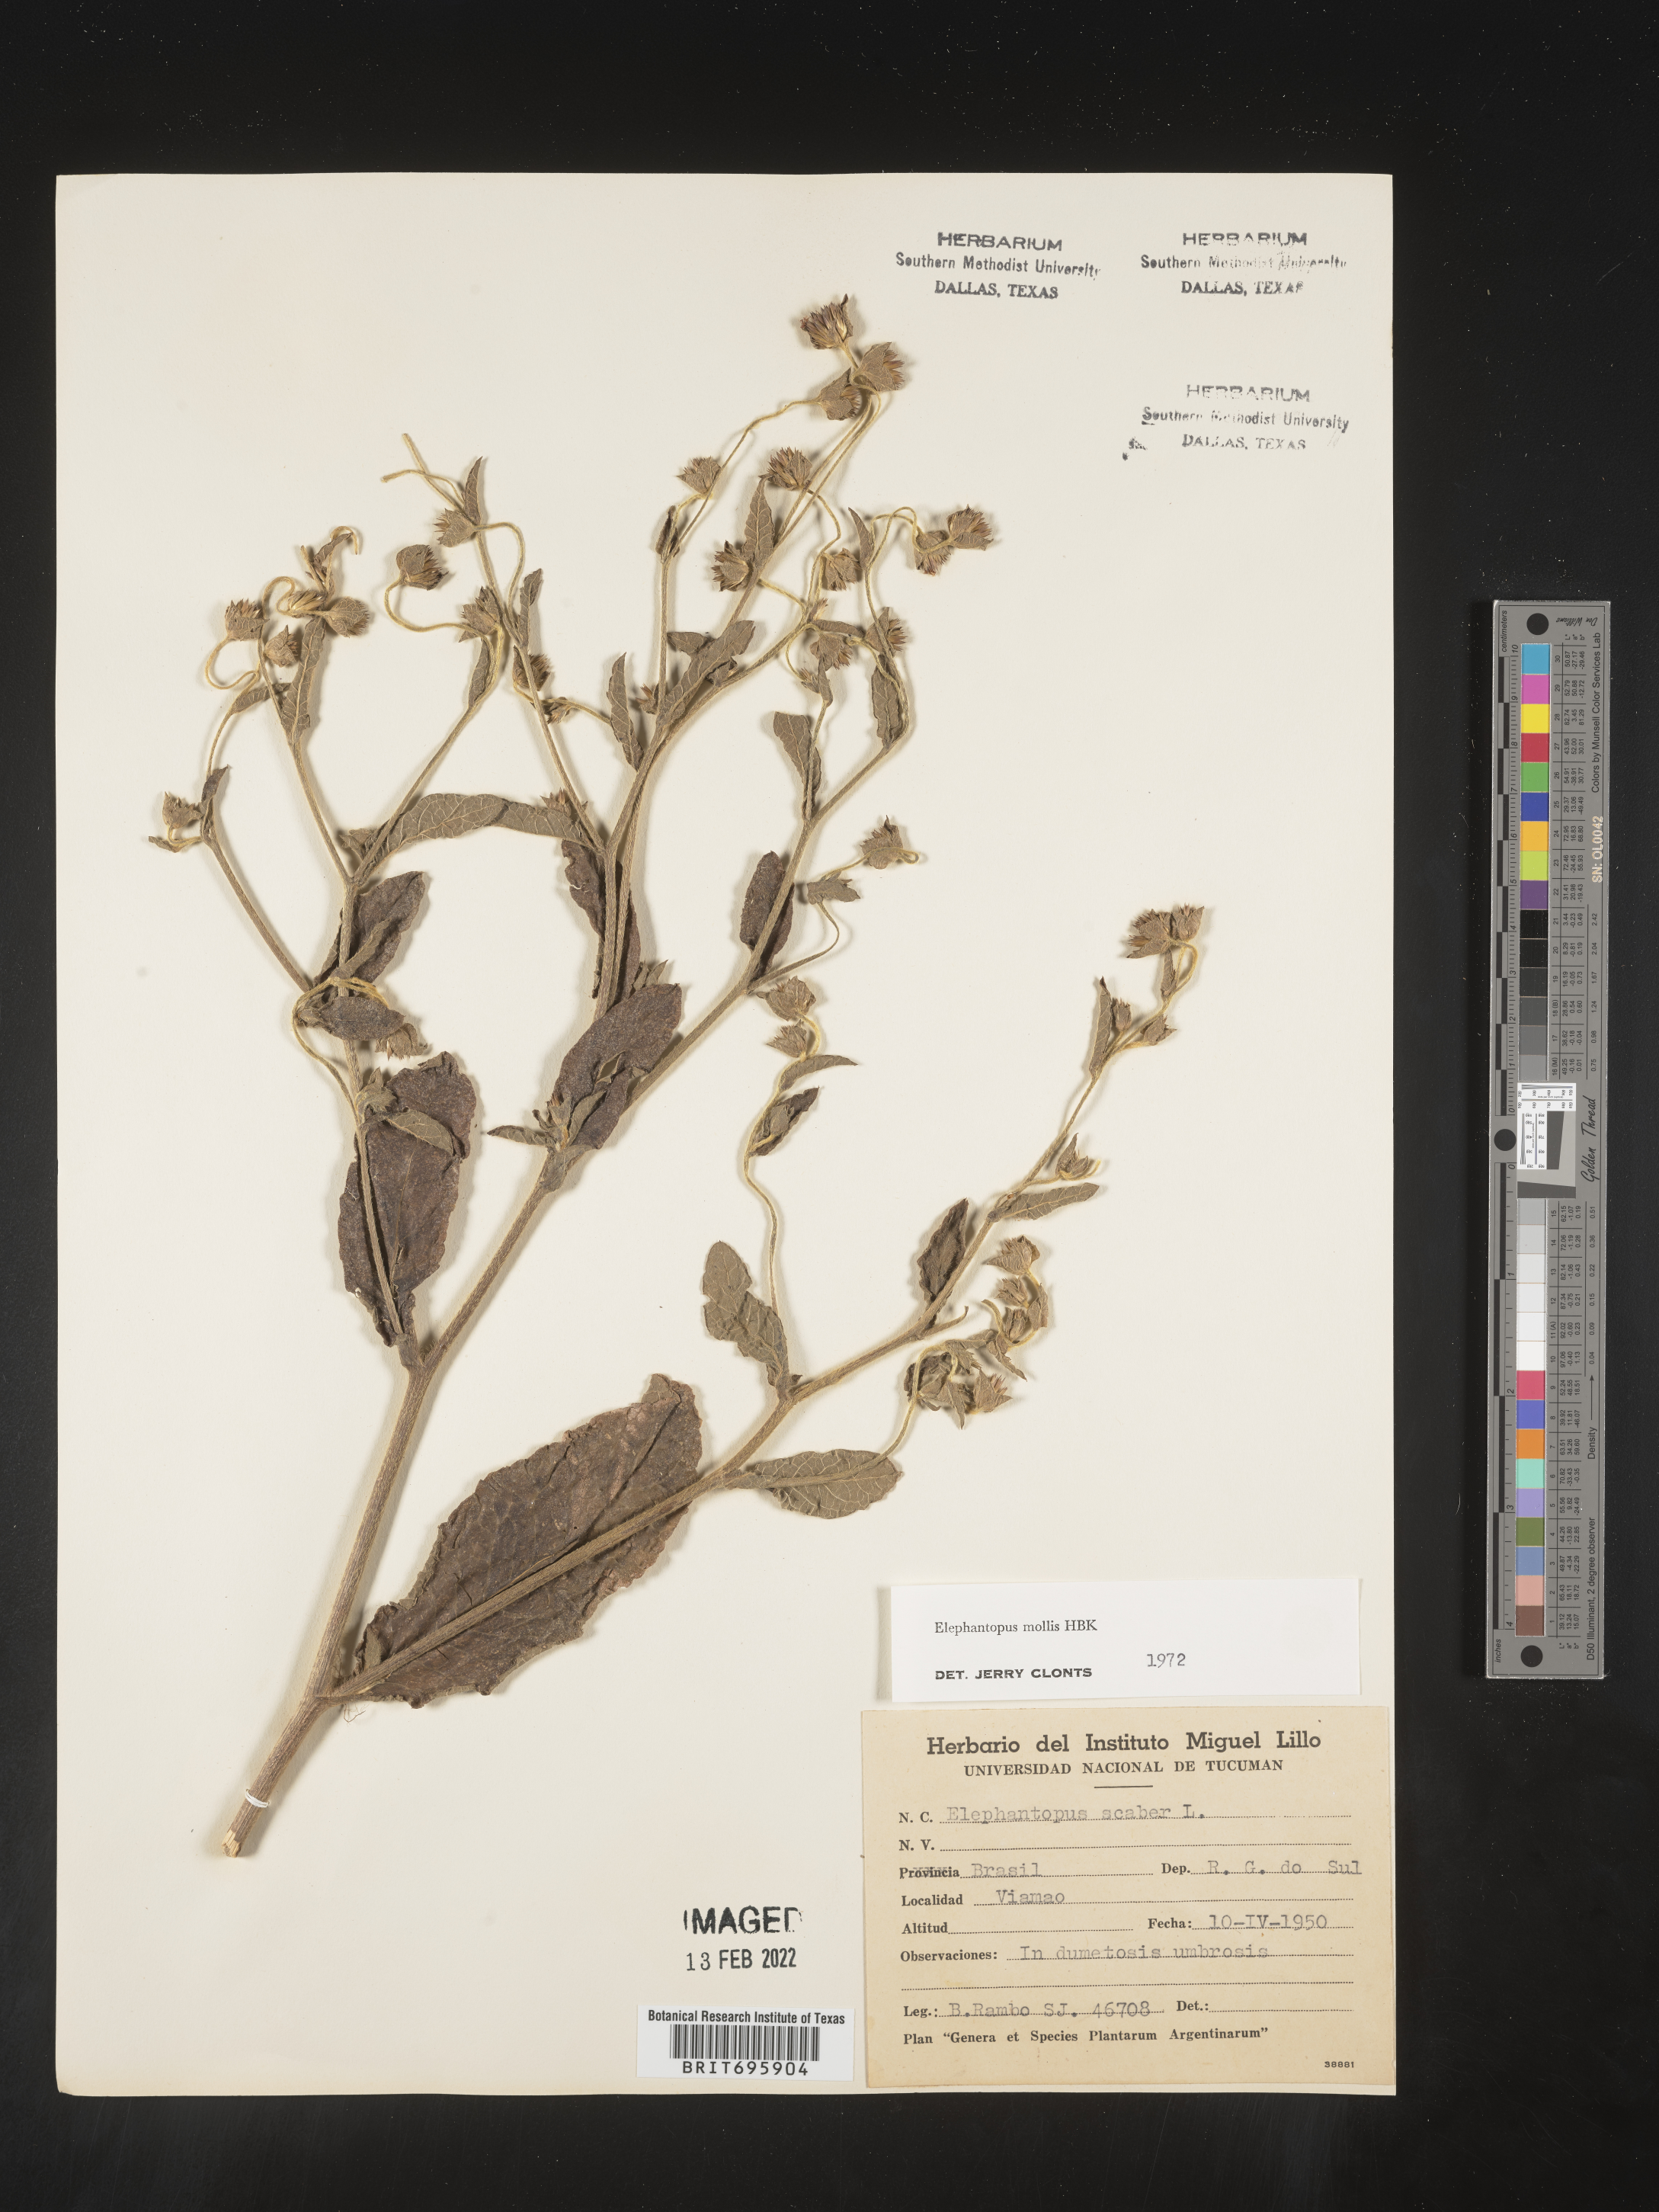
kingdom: Plantae
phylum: Tracheophyta
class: Magnoliopsida
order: Asterales
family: Asteraceae
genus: Elephantopus
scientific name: Elephantopus
